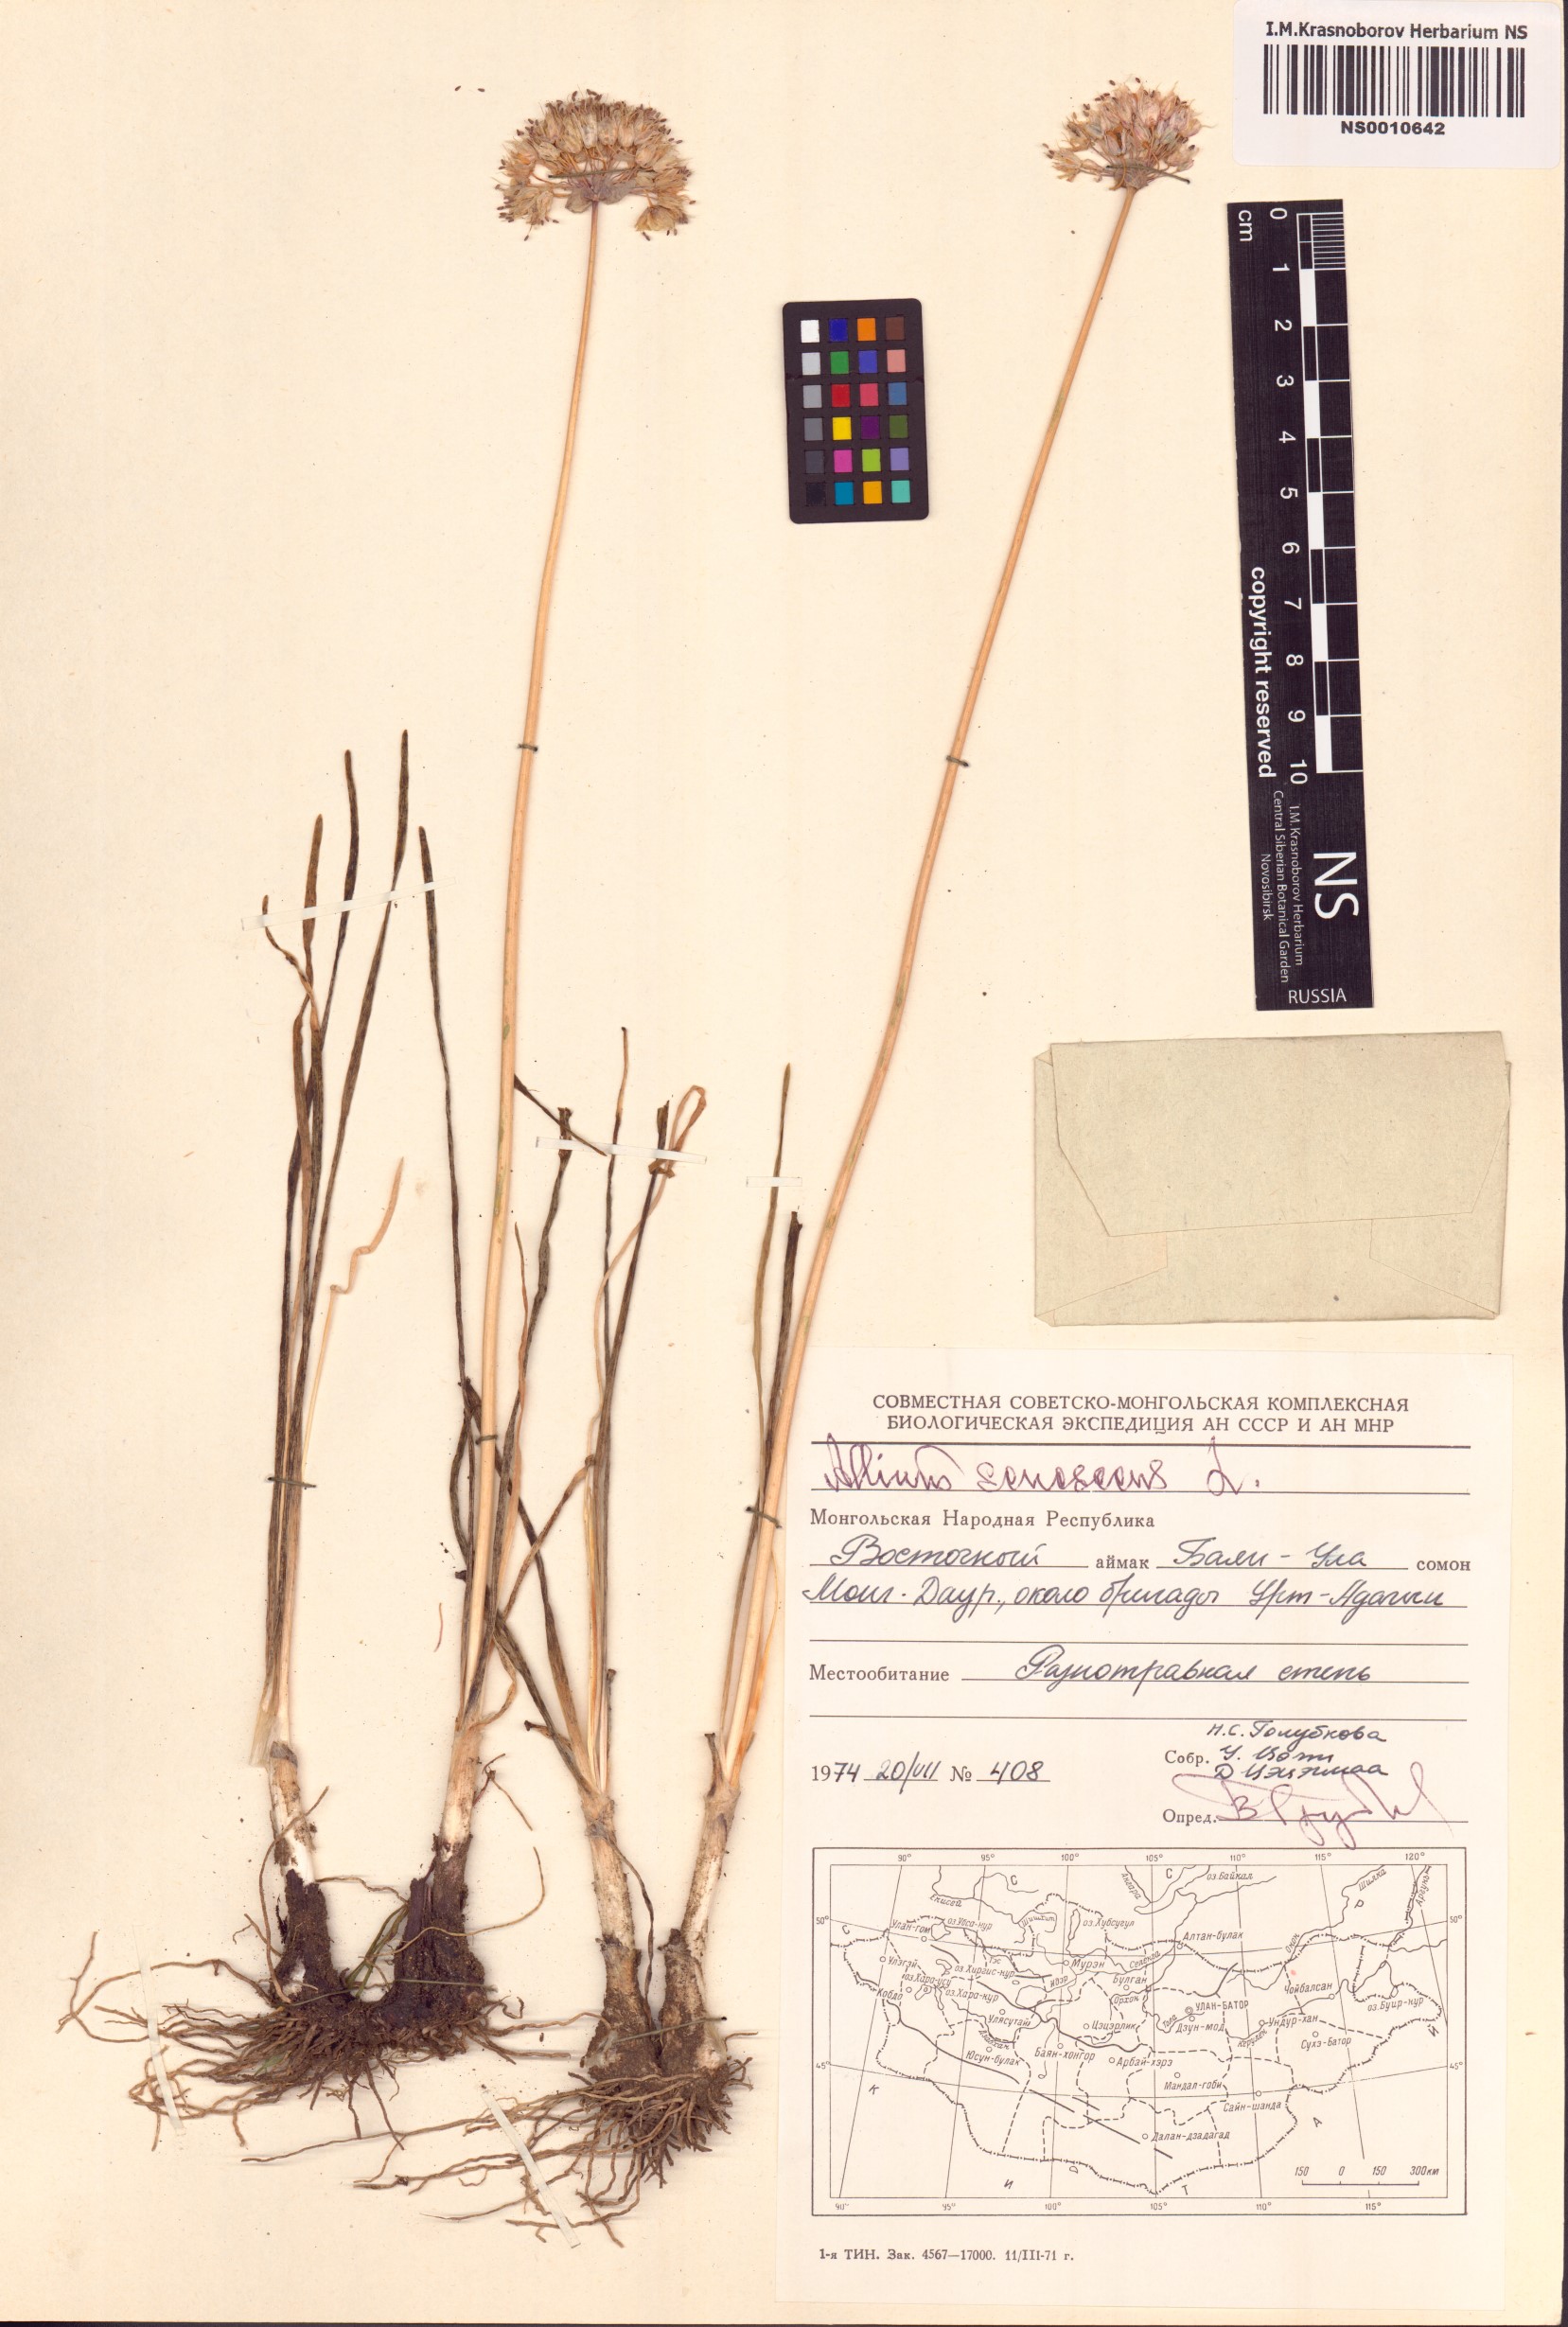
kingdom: Plantae
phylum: Tracheophyta
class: Liliopsida
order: Asparagales
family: Amaryllidaceae
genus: Allium
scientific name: Allium senescens
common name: German garlic
